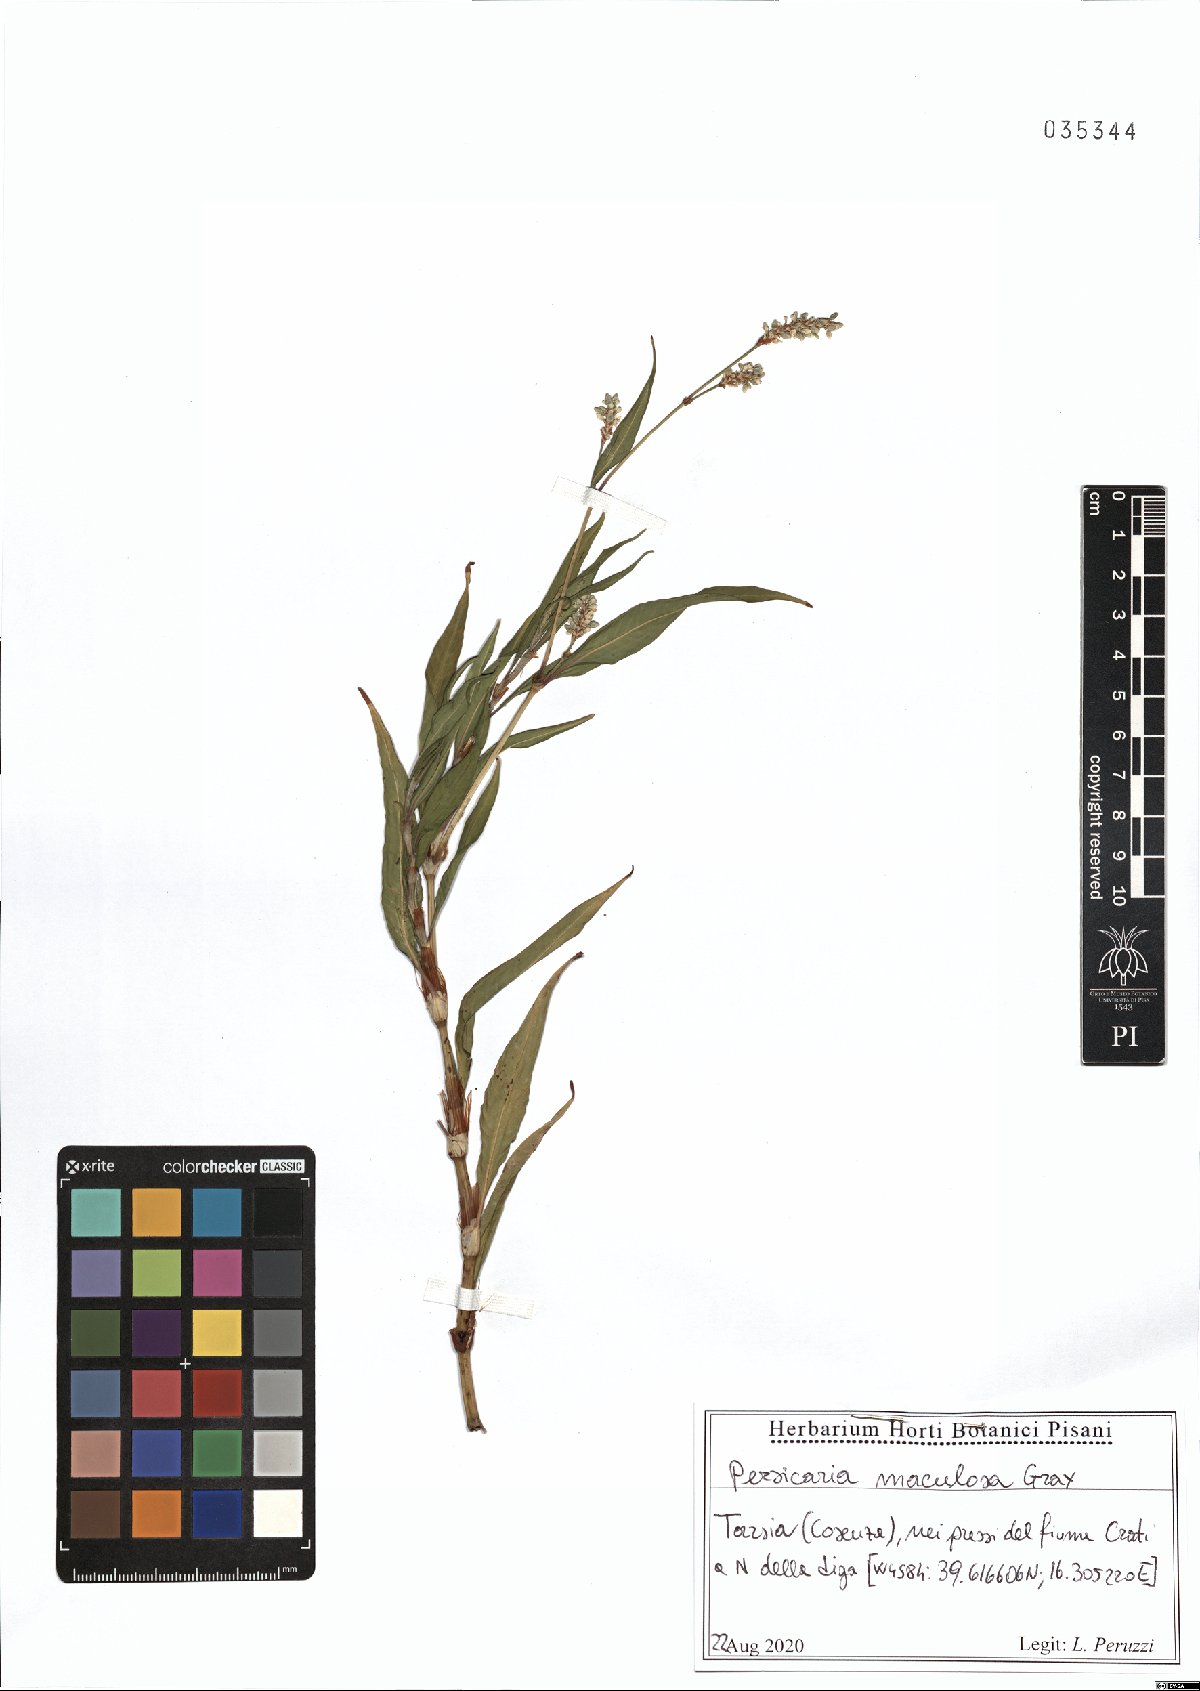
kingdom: Plantae
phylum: Tracheophyta
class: Magnoliopsida
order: Caryophyllales
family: Polygonaceae
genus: Persicaria
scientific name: Persicaria maculosa
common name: Redshank
